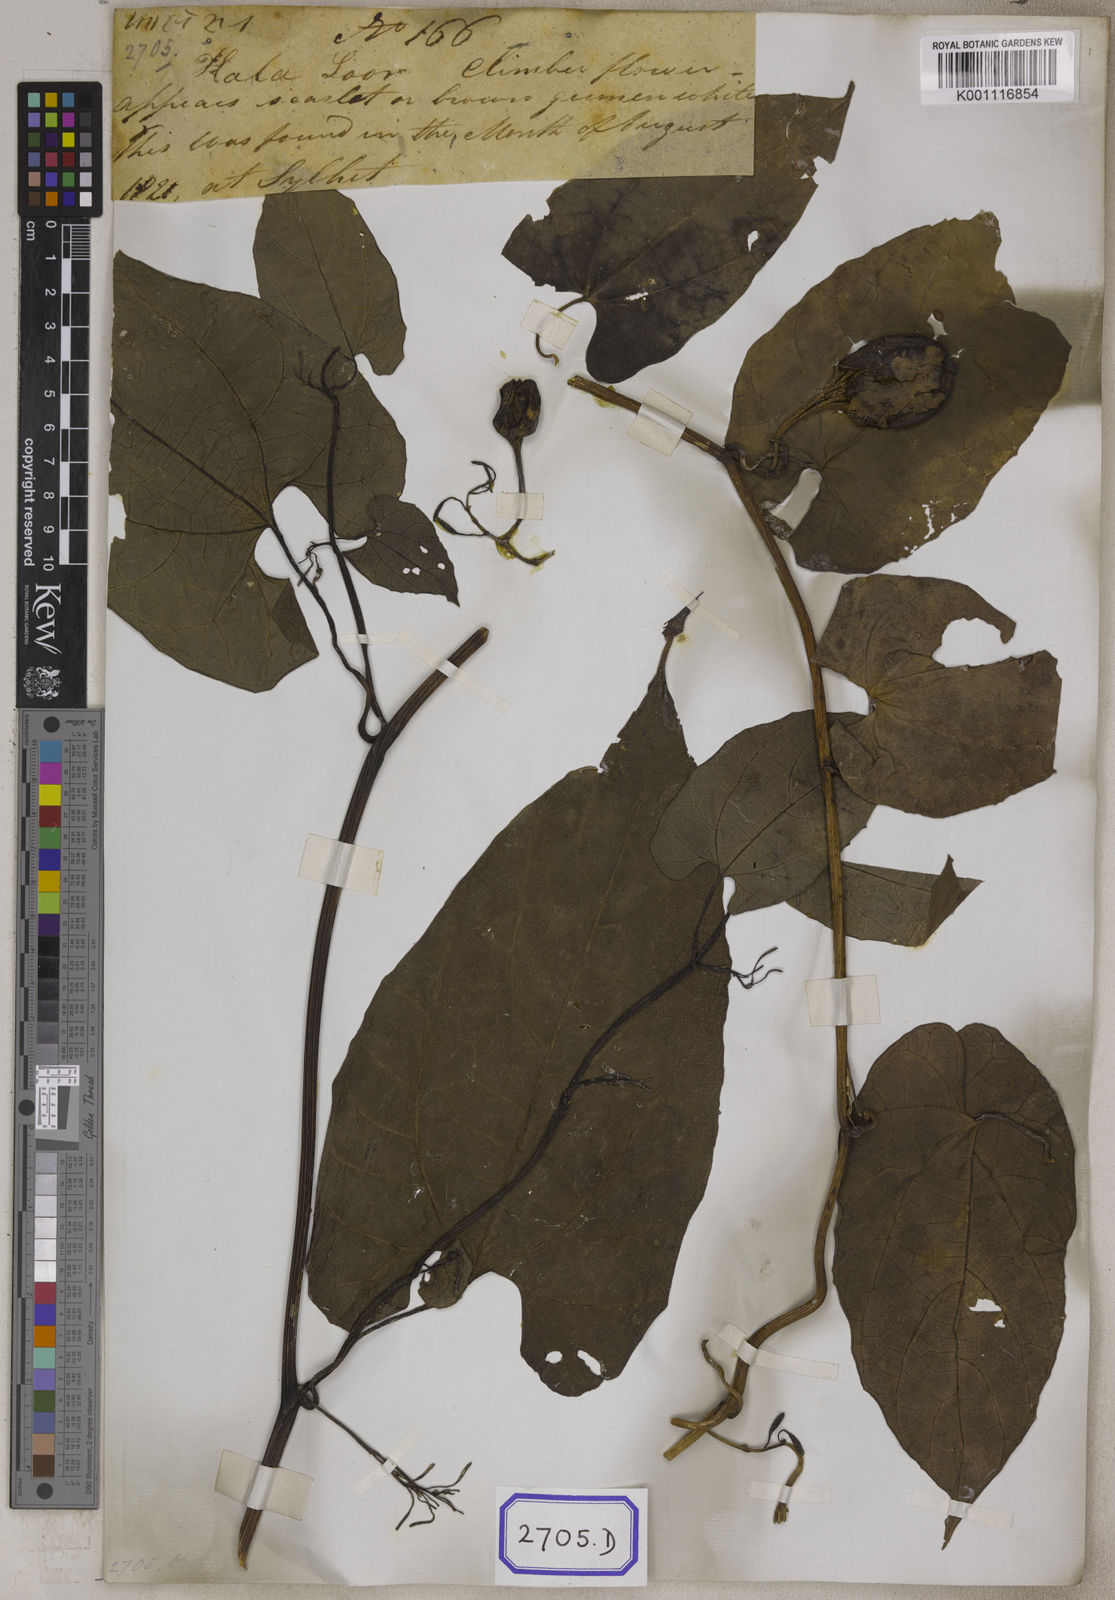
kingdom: Plantae
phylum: Tracheophyta
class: Magnoliopsida
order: Piperales
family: Aristolochiaceae
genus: Aristolochia
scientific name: Aristolochia acuminata
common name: Indian birthwort
